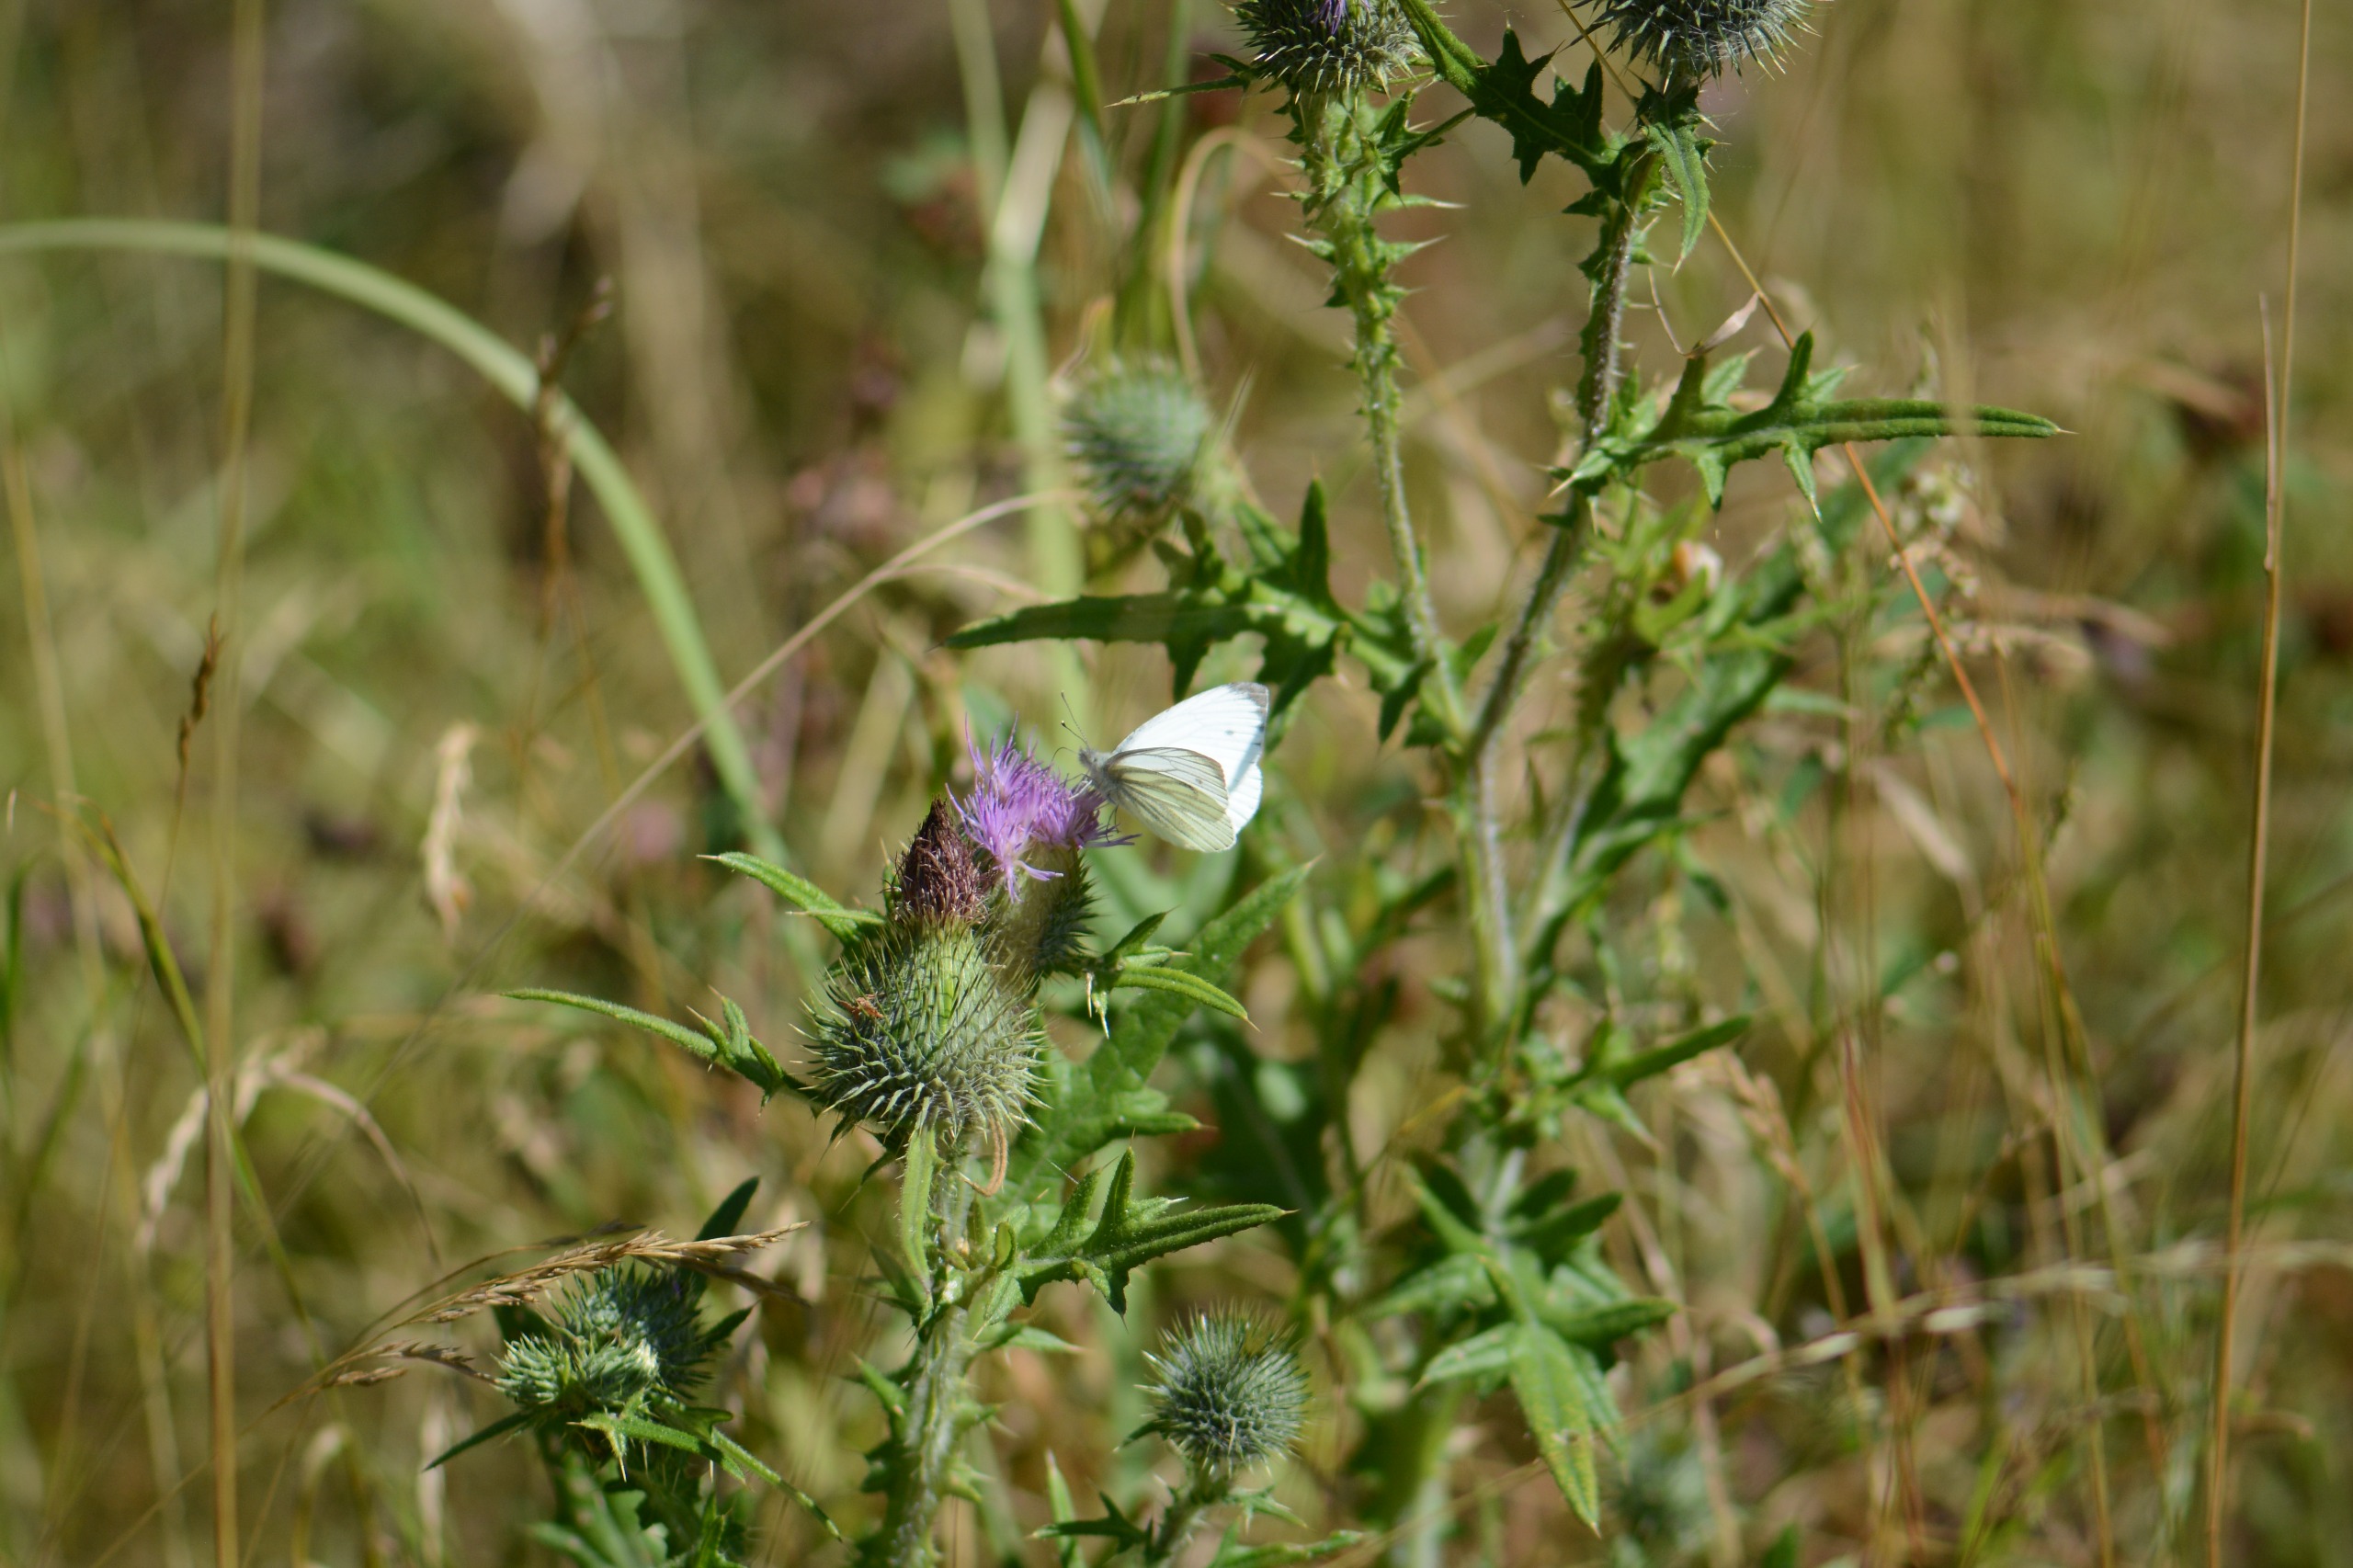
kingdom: Animalia
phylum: Arthropoda
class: Insecta
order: Lepidoptera
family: Pieridae
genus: Pieris
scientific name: Pieris napi
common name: Grønåret kålsommerfugl
